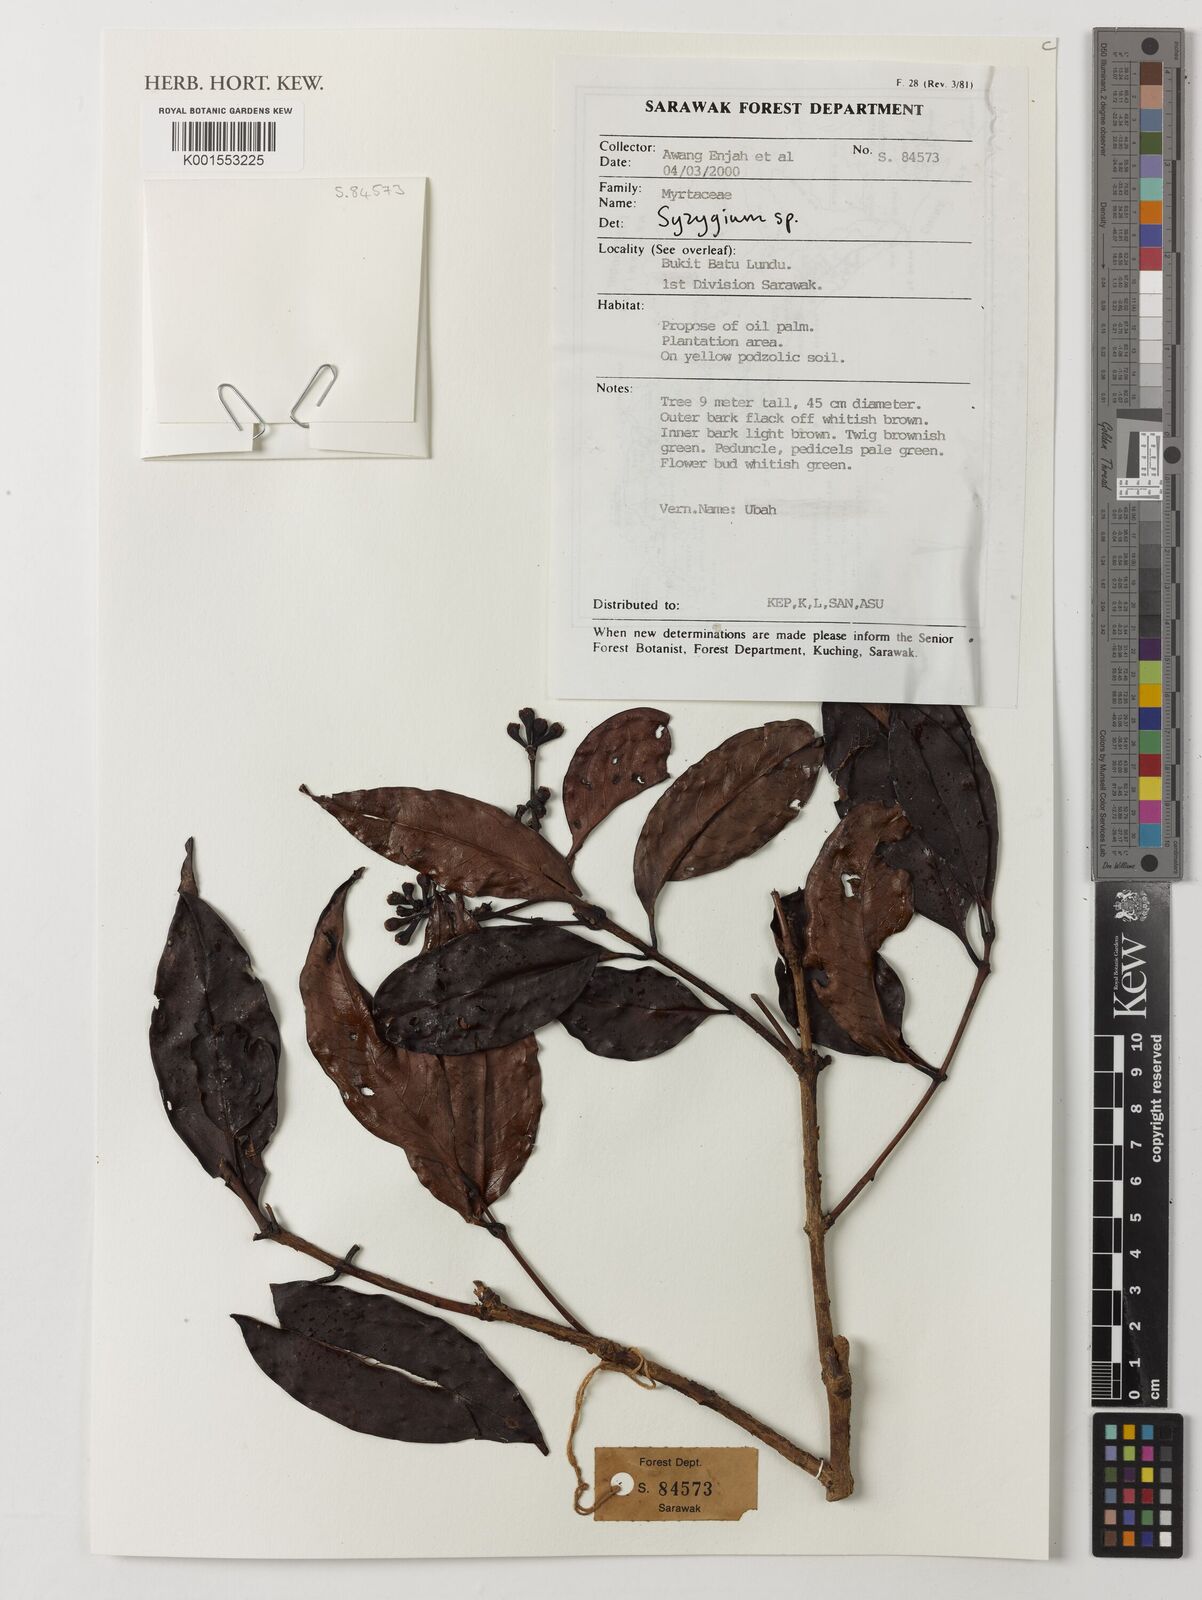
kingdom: Plantae
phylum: Tracheophyta
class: Magnoliopsida
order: Myrtales
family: Myrtaceae
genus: Syzygium
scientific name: Syzygium
